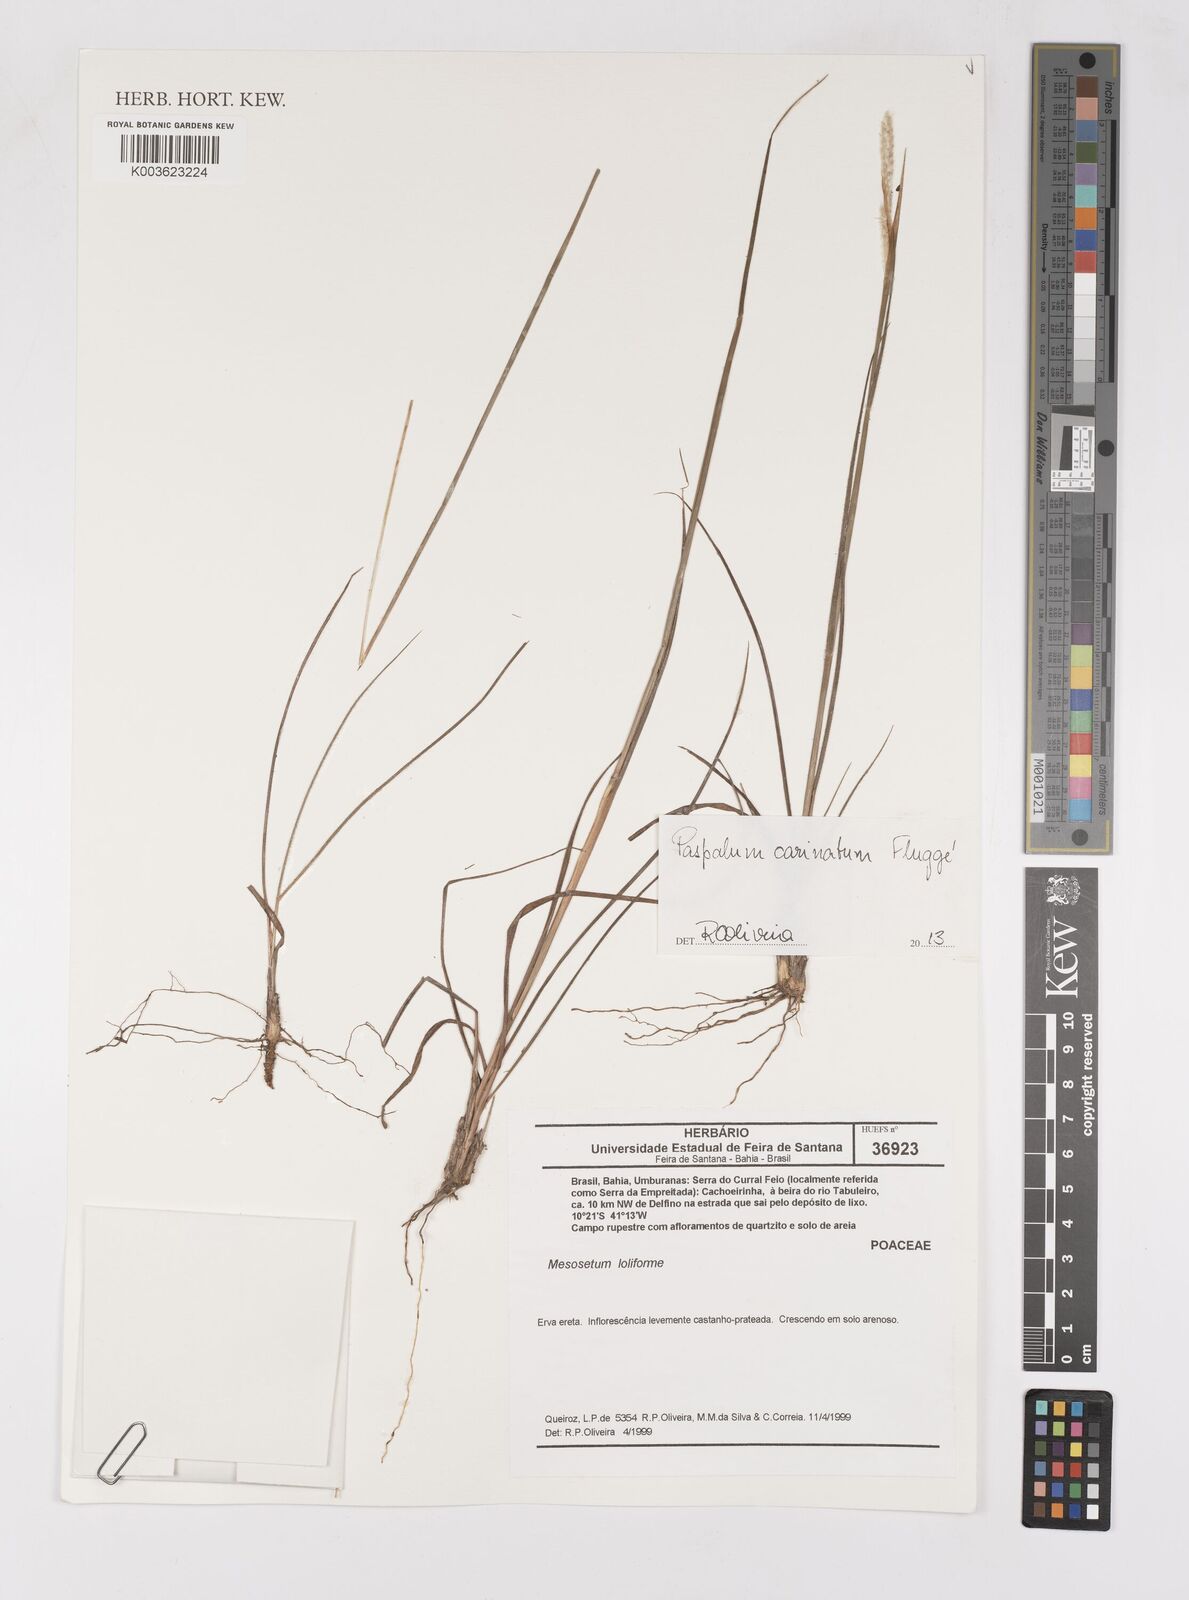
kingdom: Plantae
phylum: Tracheophyta
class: Liliopsida
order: Poales
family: Poaceae
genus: Paspalum
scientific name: Paspalum carinatum
